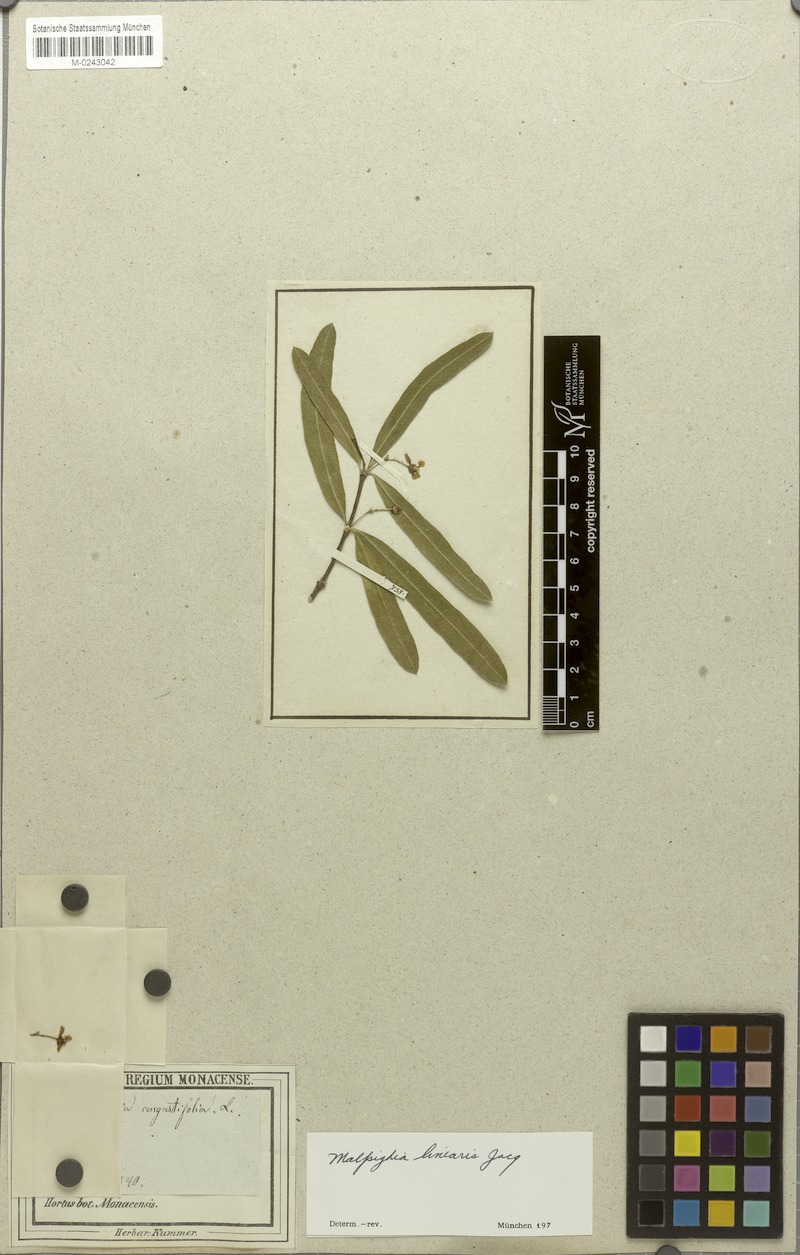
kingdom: Plantae
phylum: Tracheophyta
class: Magnoliopsida
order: Malpighiales
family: Malpighiaceae
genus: Malpighia
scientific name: Malpighia linearis
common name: Bastard cherry
